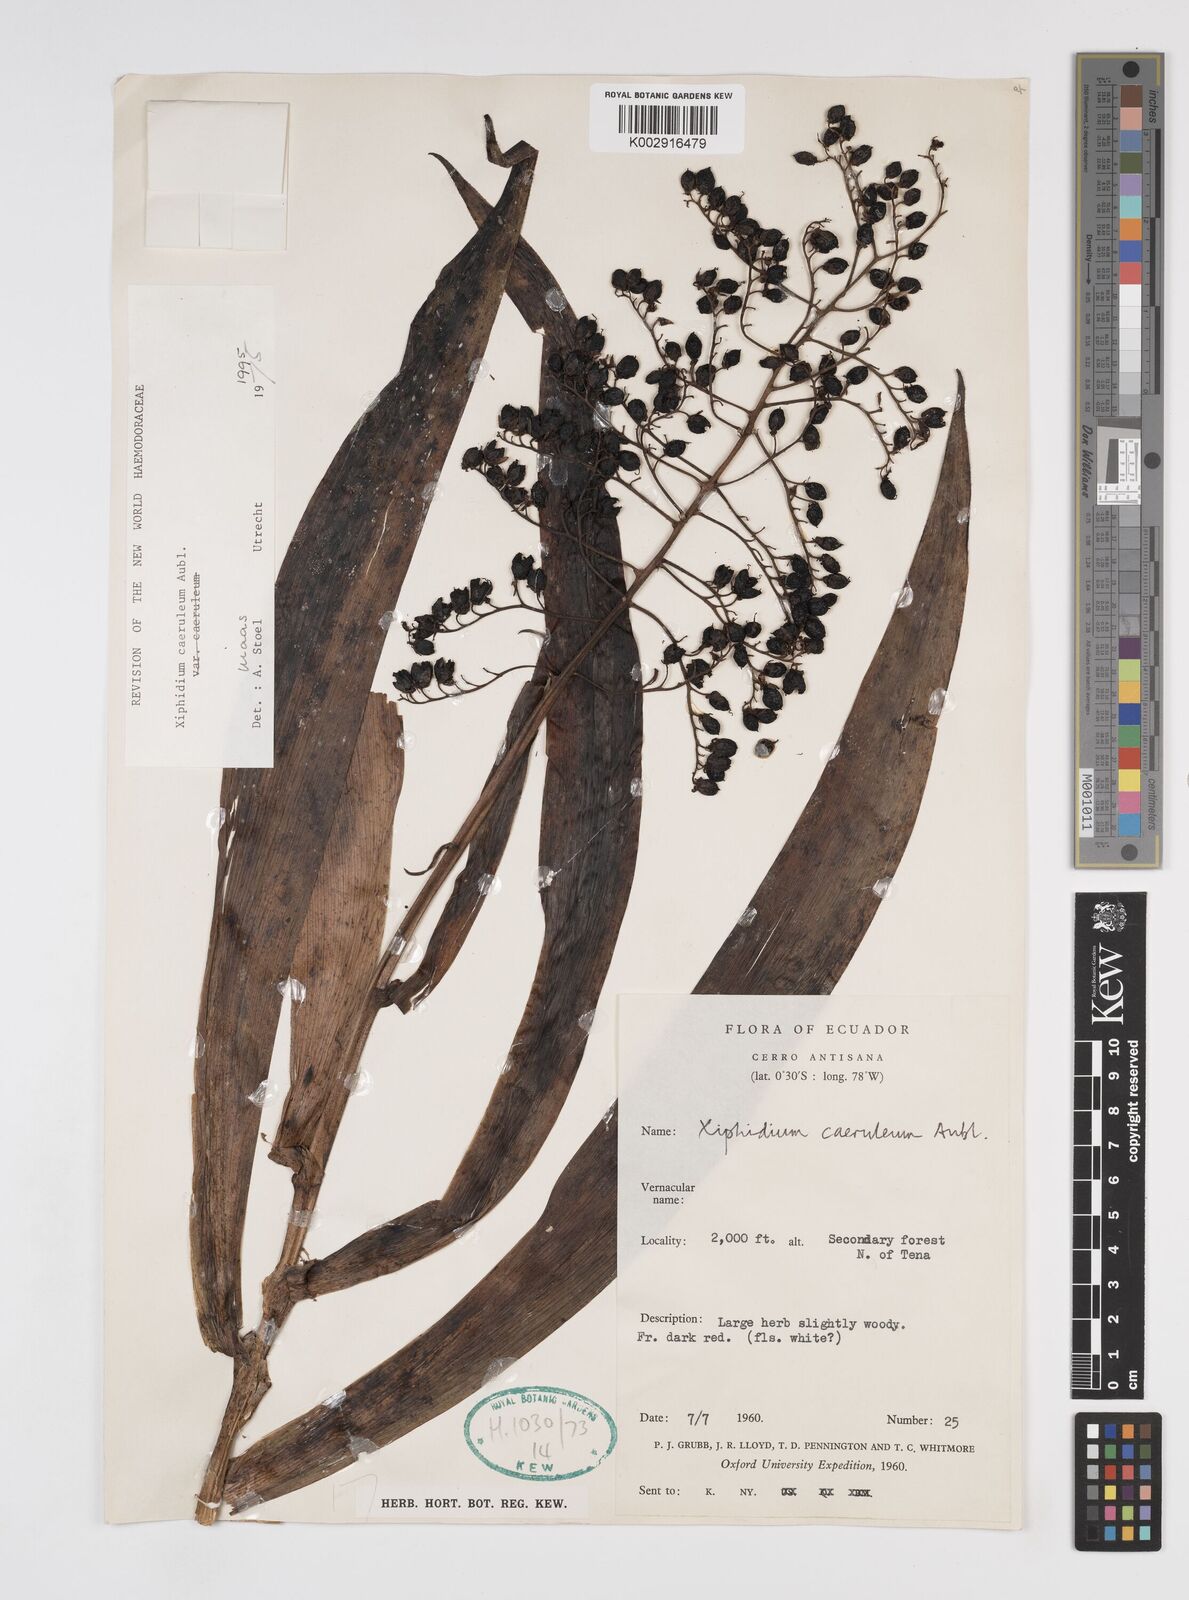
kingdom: Plantae
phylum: Tracheophyta
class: Liliopsida
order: Commelinales
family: Haemodoraceae
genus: Xiphidium
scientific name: Xiphidium caeruleum
